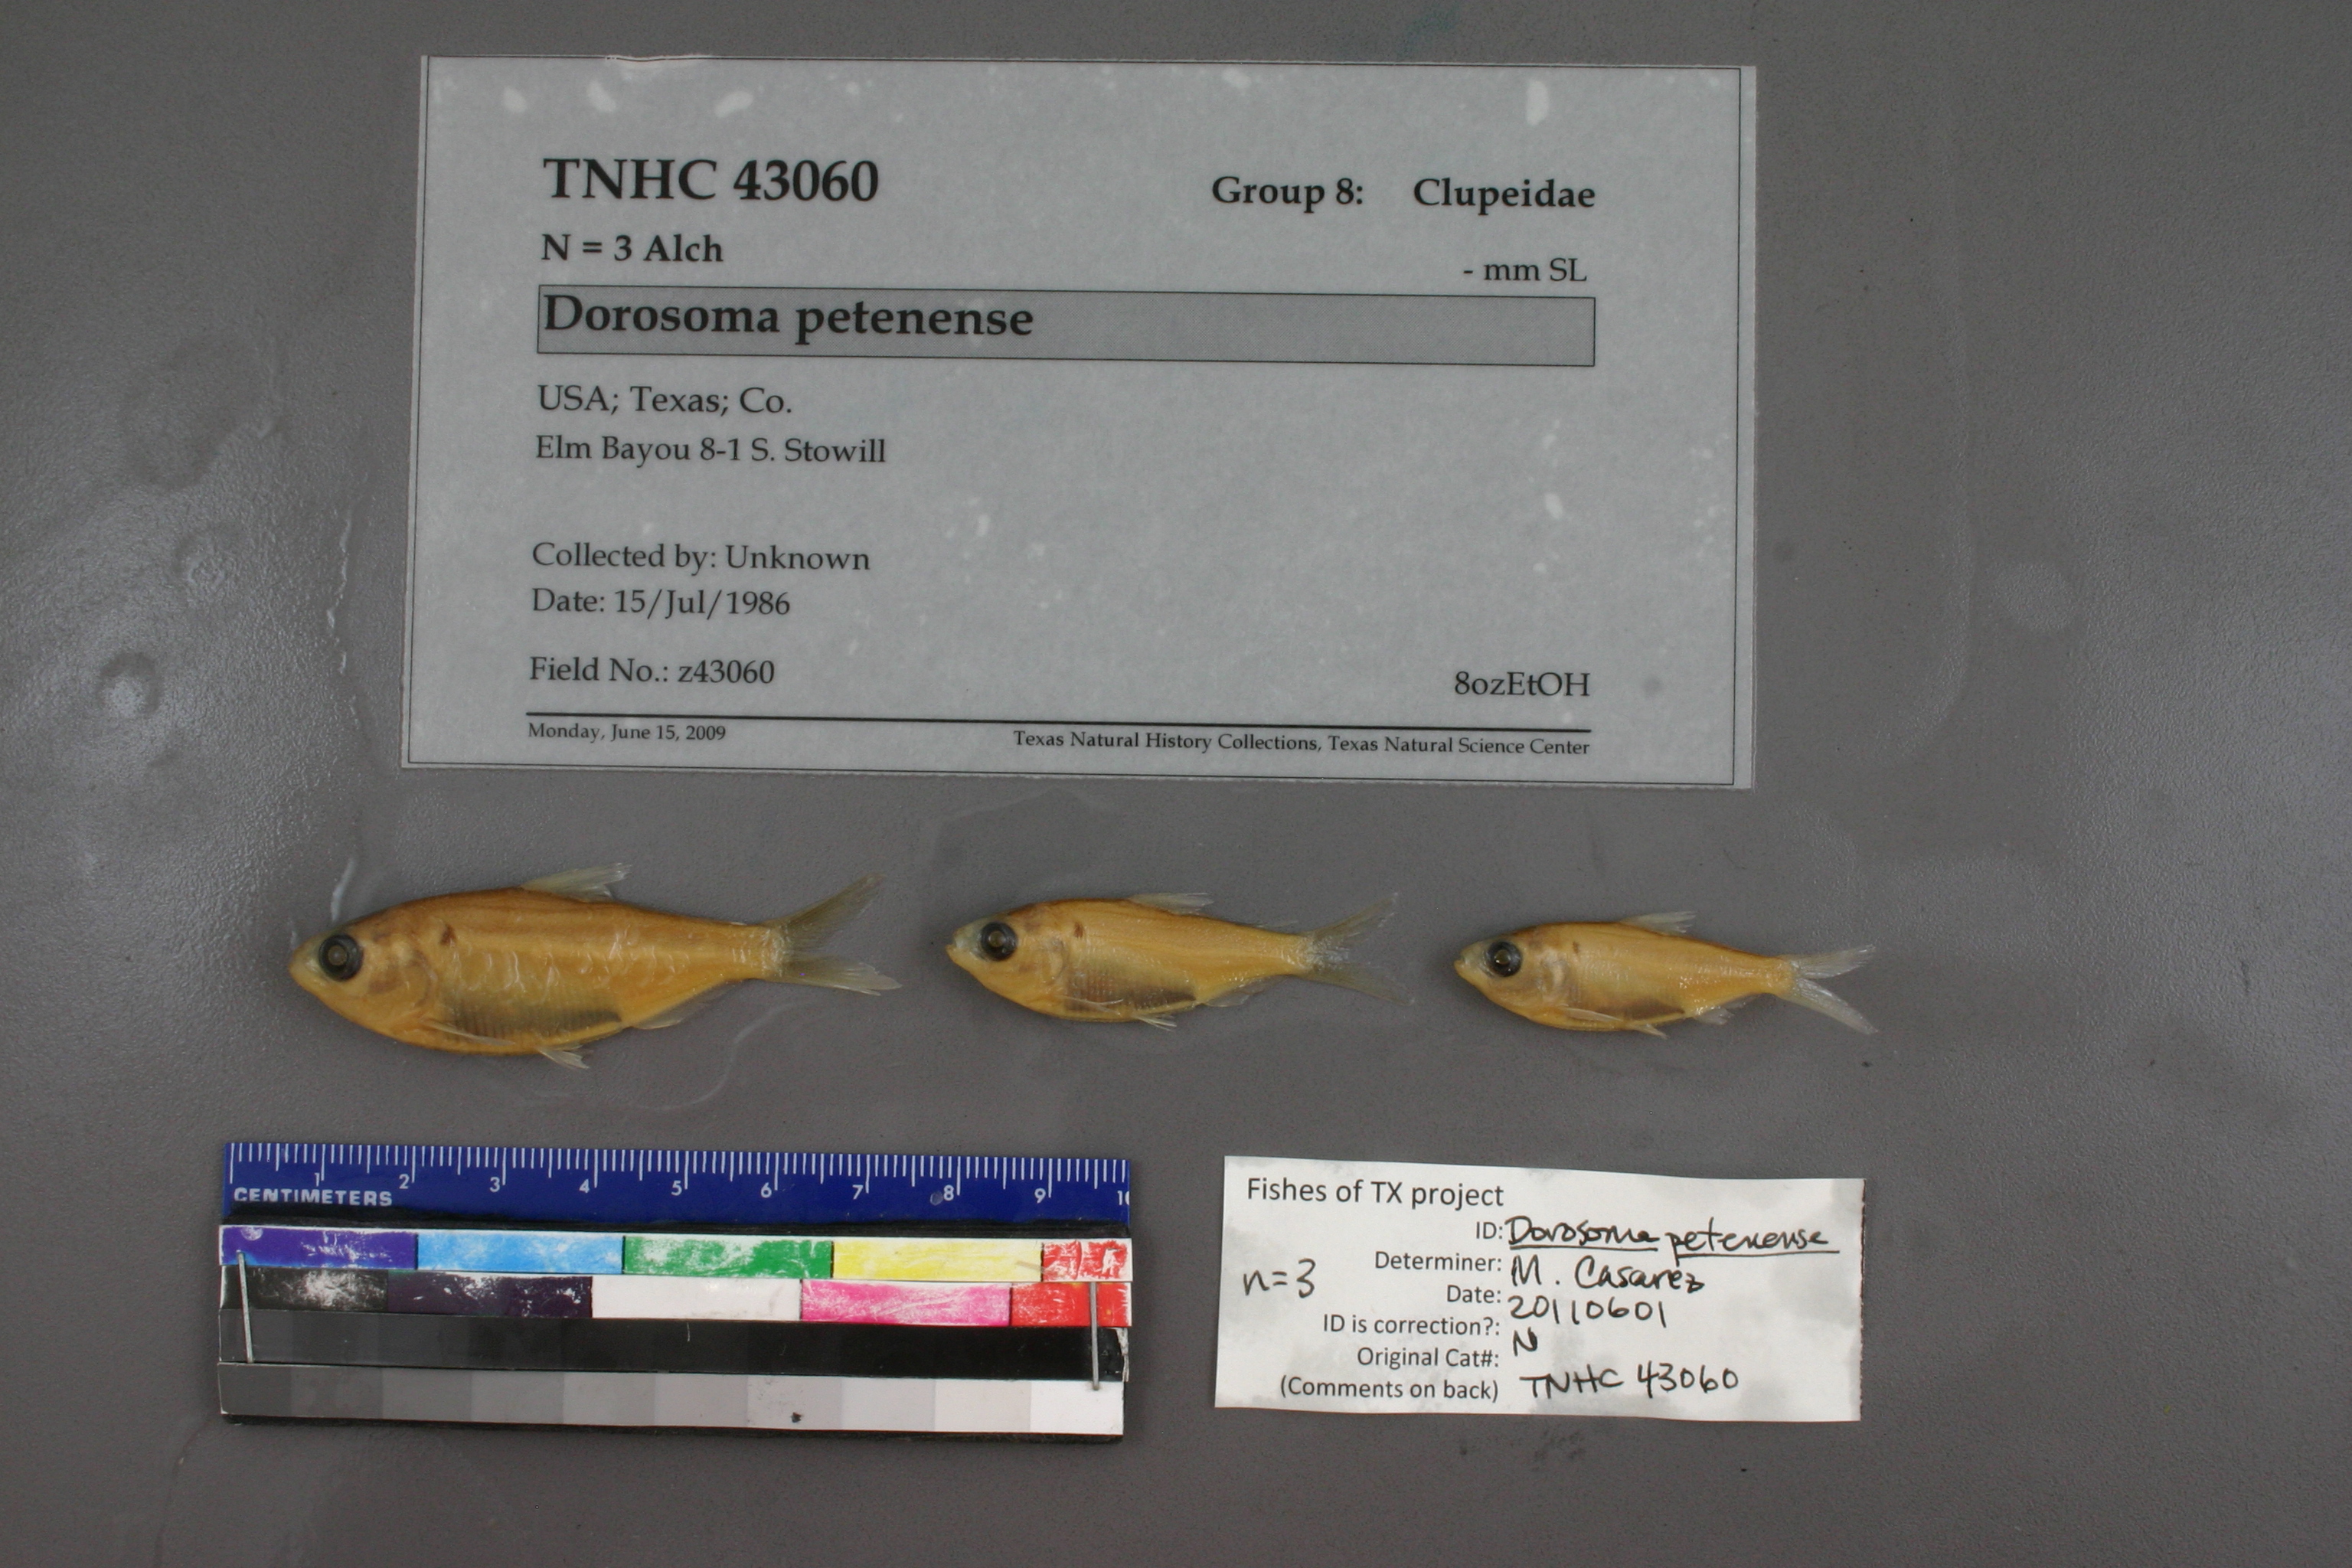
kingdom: Animalia
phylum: Chordata
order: Clupeiformes
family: Clupeidae
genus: Dorosoma
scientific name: Dorosoma petenense
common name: Threadfin shad
